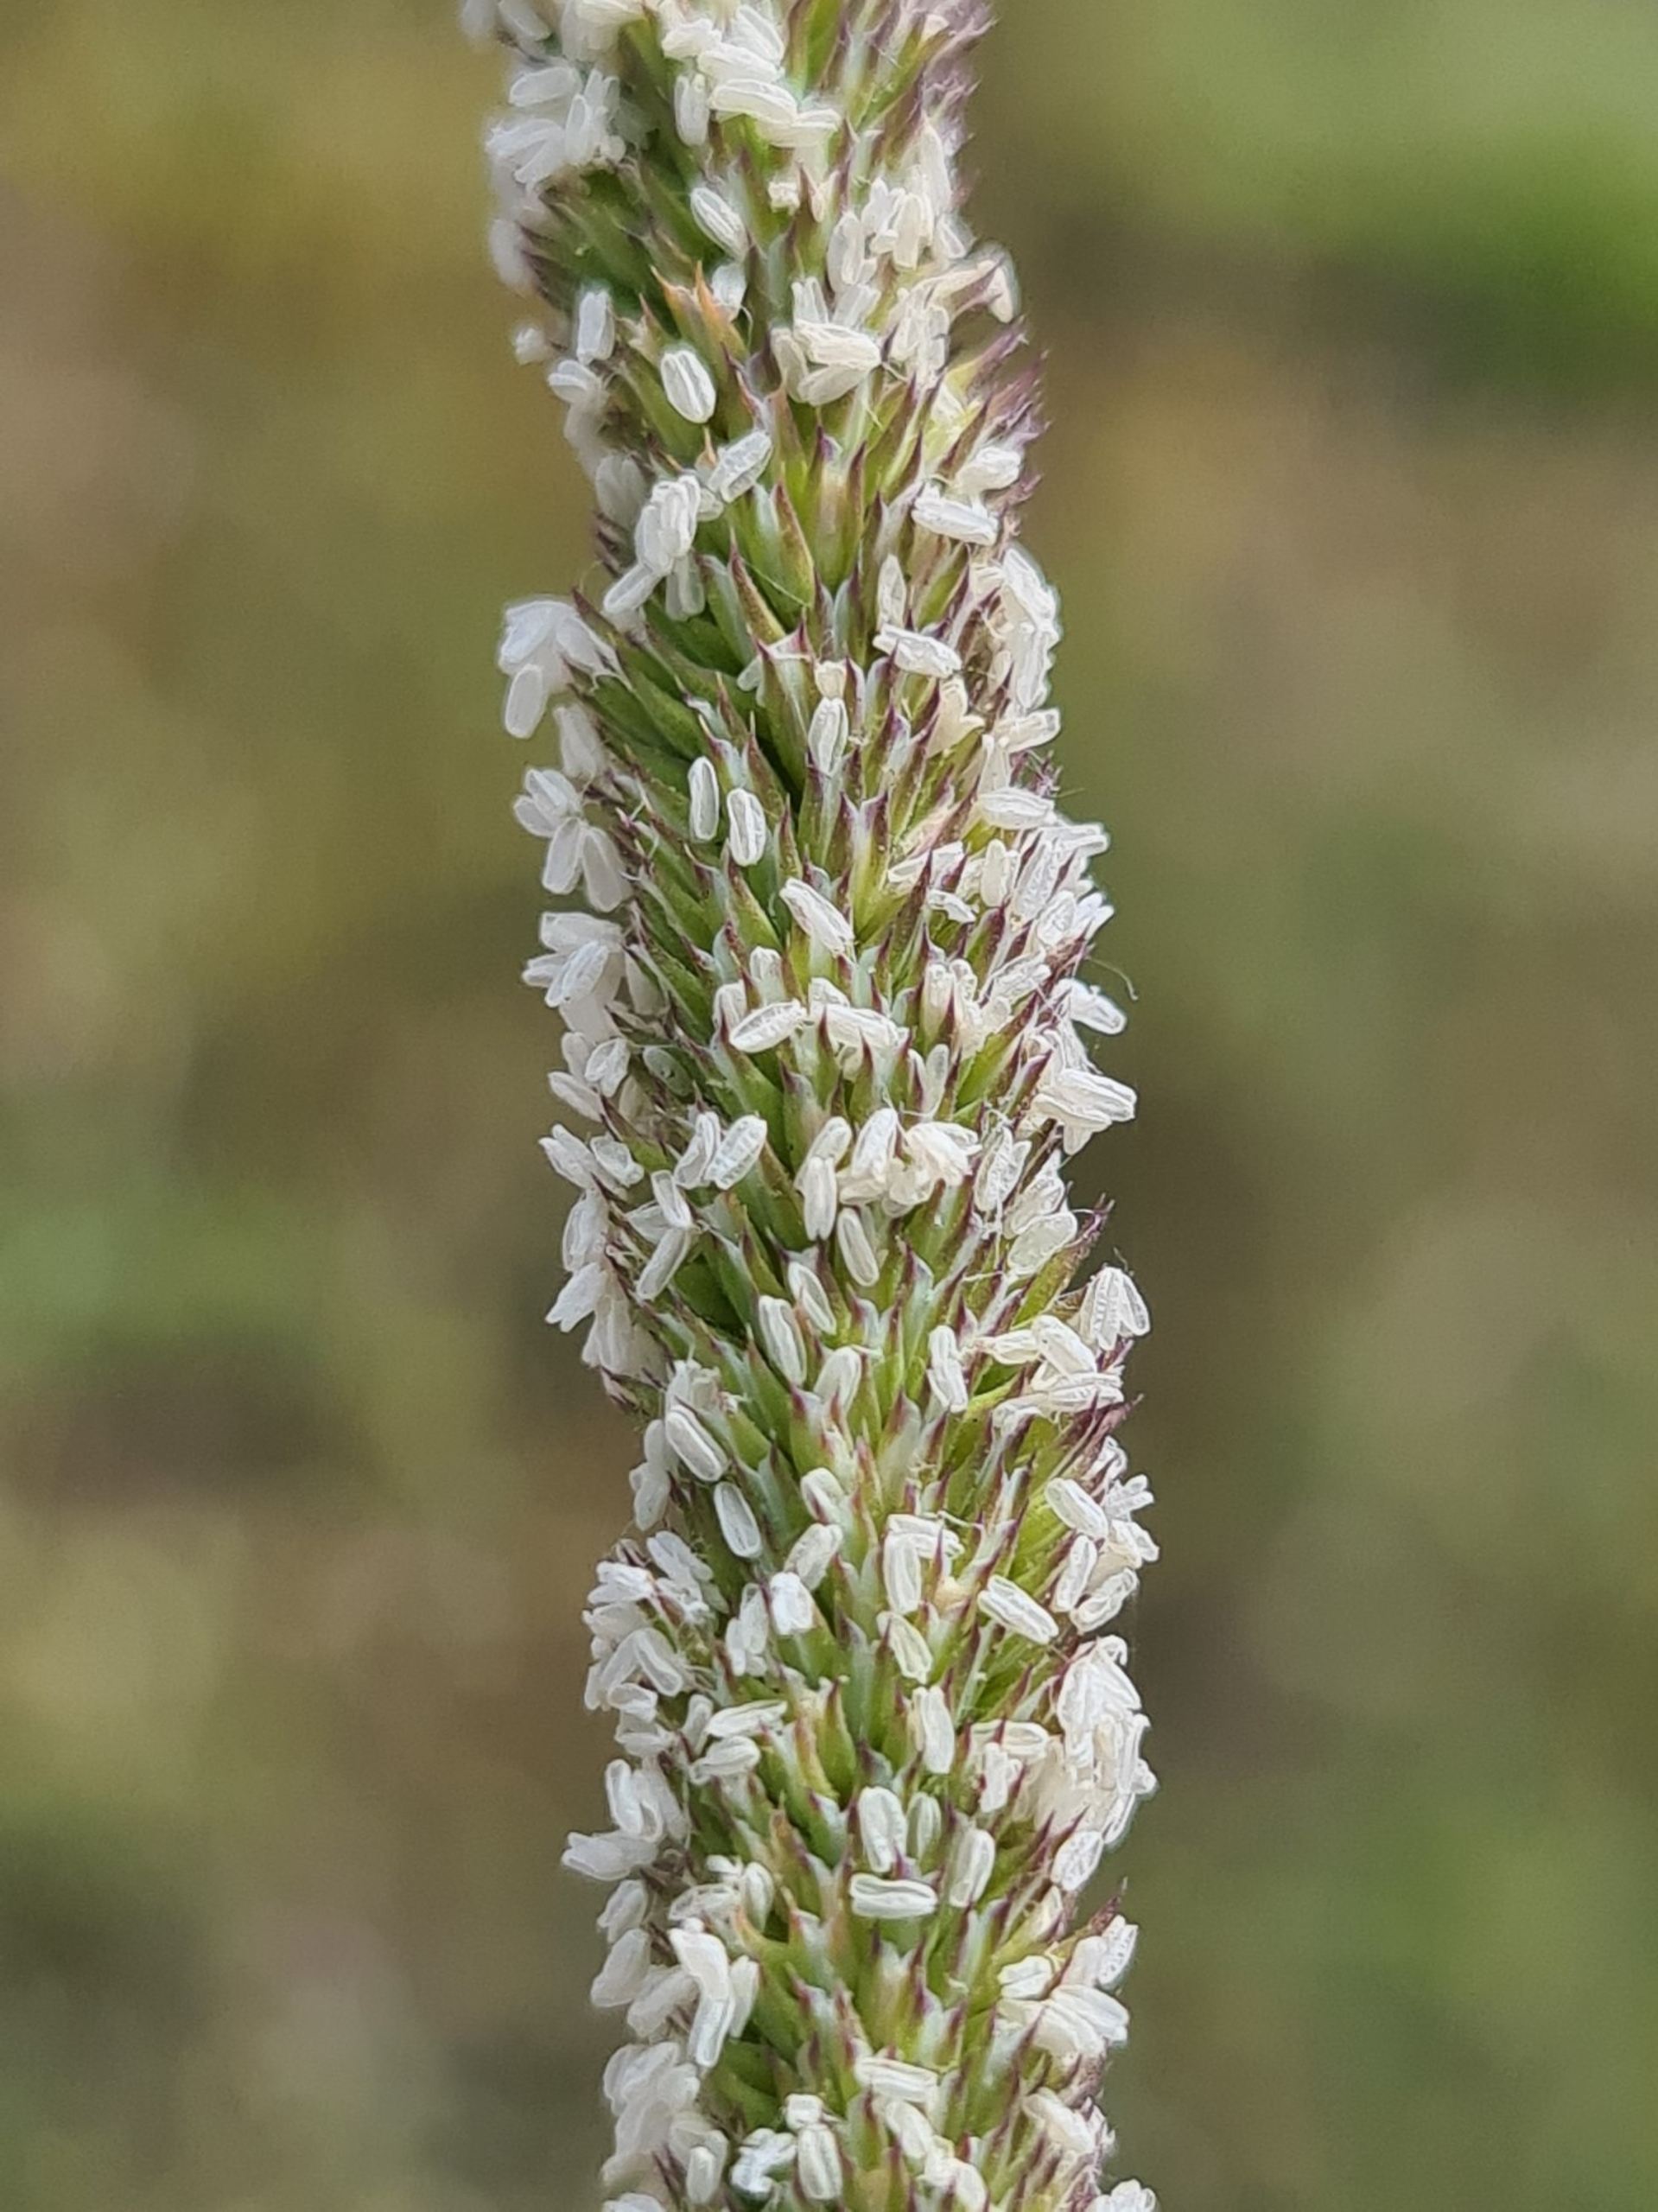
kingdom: Plantae
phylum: Tracheophyta
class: Liliopsida
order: Poales
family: Poaceae
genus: Phleum
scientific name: Phleum phleoides
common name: Glat rottehale
